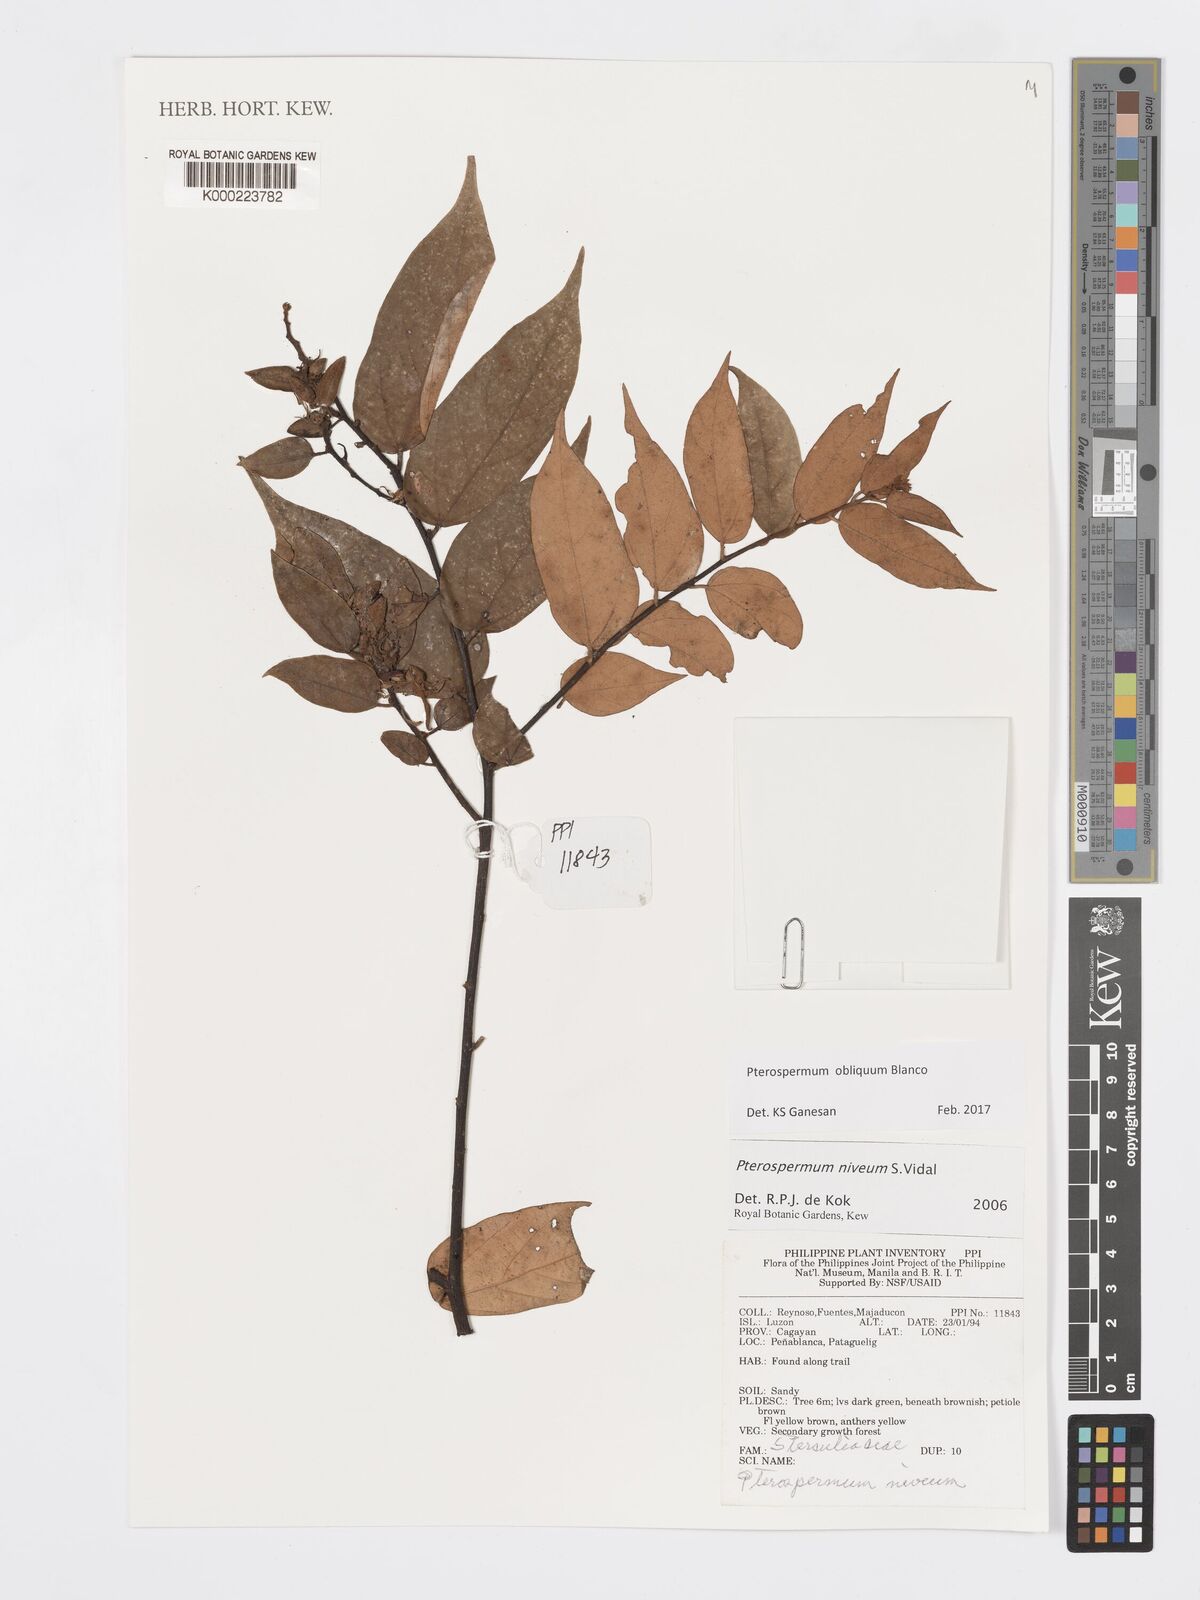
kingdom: Plantae
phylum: Tracheophyta
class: Magnoliopsida
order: Malvales
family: Malvaceae
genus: Pterospermum
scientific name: Pterospermum niveum
